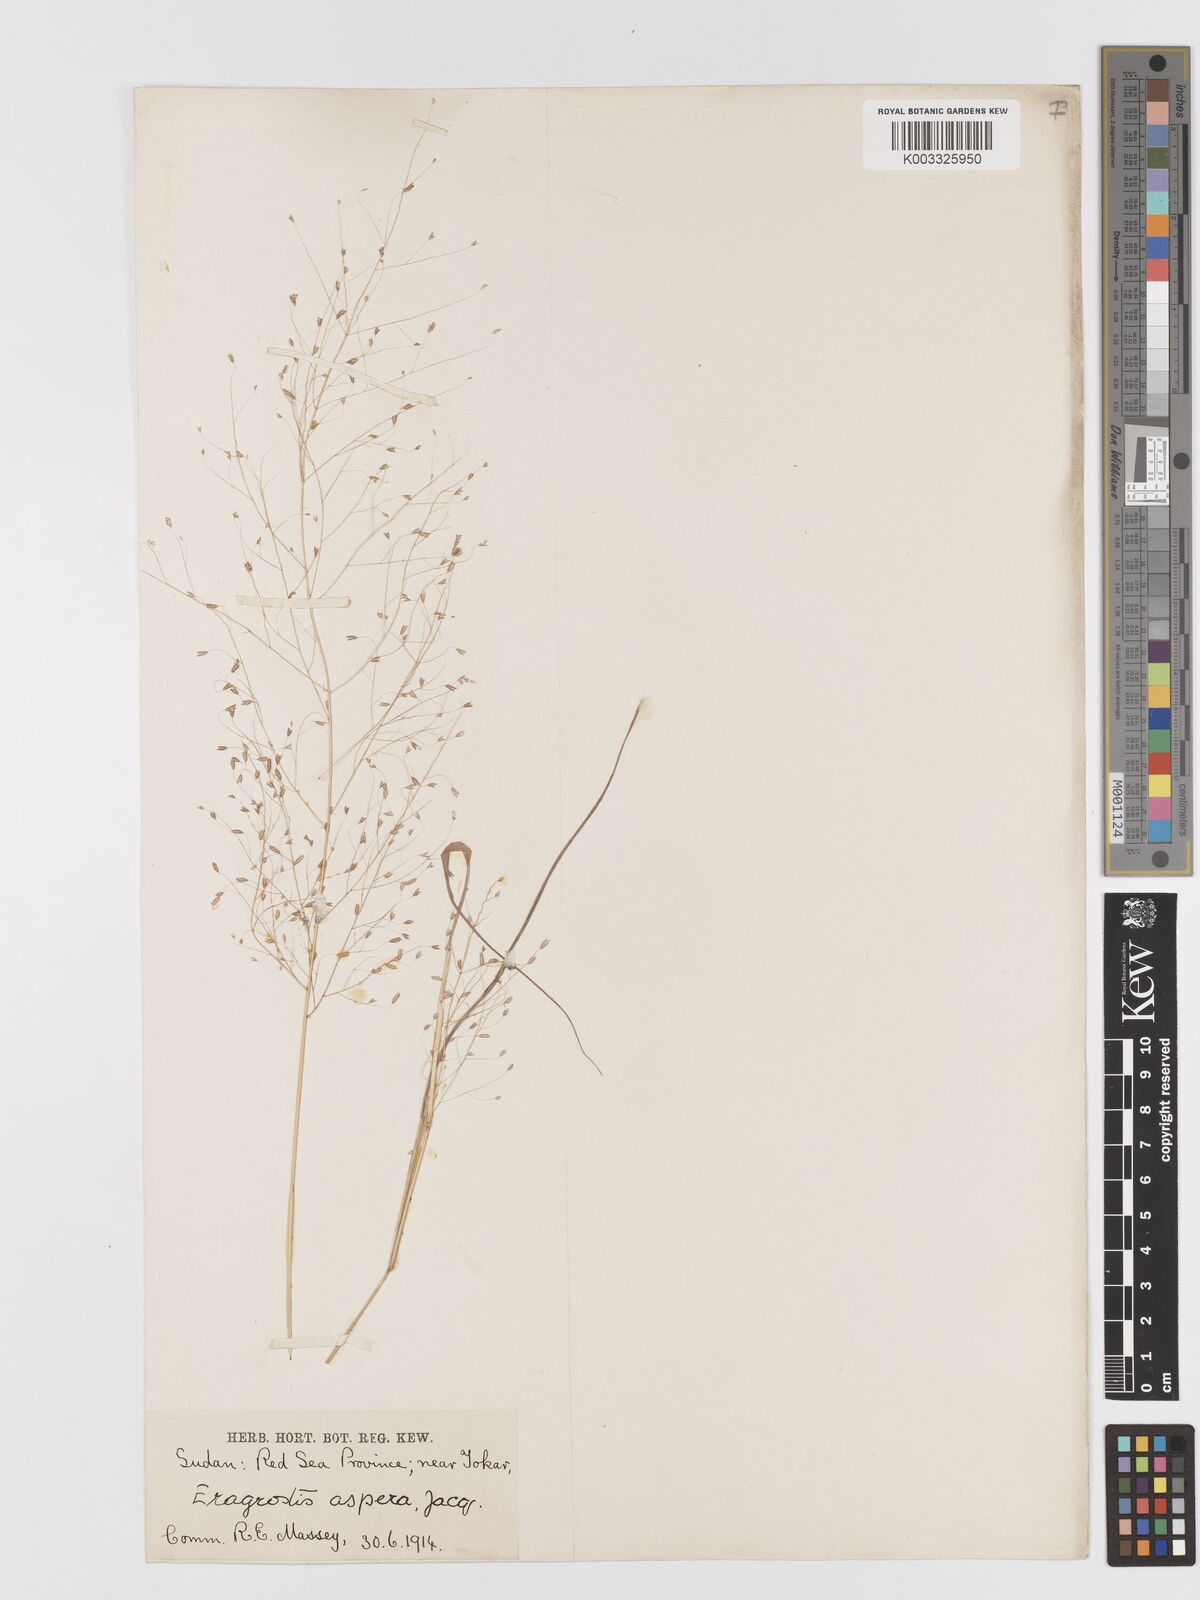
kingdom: Plantae
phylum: Tracheophyta
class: Liliopsida
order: Poales
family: Poaceae
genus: Eragrostis
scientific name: Eragrostis aspera
